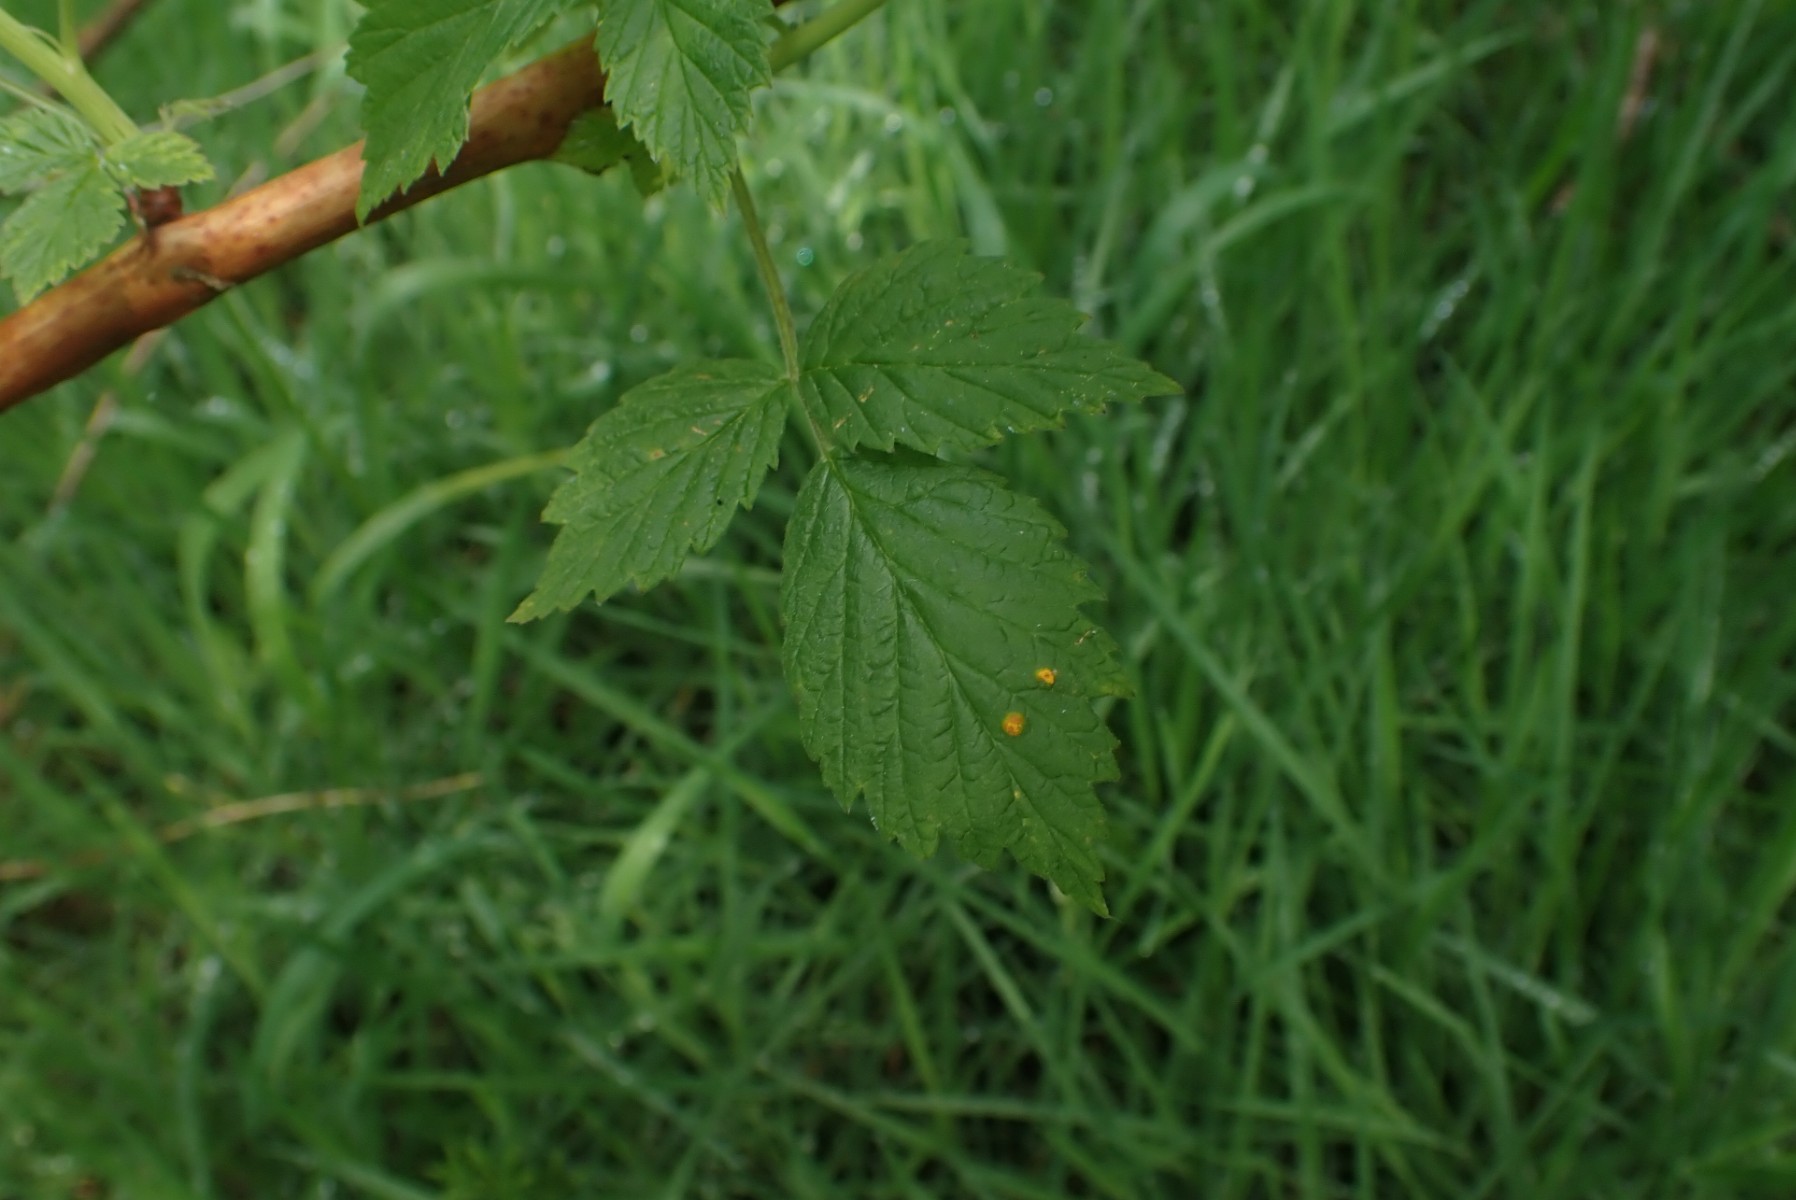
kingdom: Fungi
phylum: Basidiomycota
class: Pucciniomycetes
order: Pucciniales
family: Phragmidiaceae
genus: Phragmidium
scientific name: Phragmidium rubi-idaei
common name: hindbær-flercellerust
